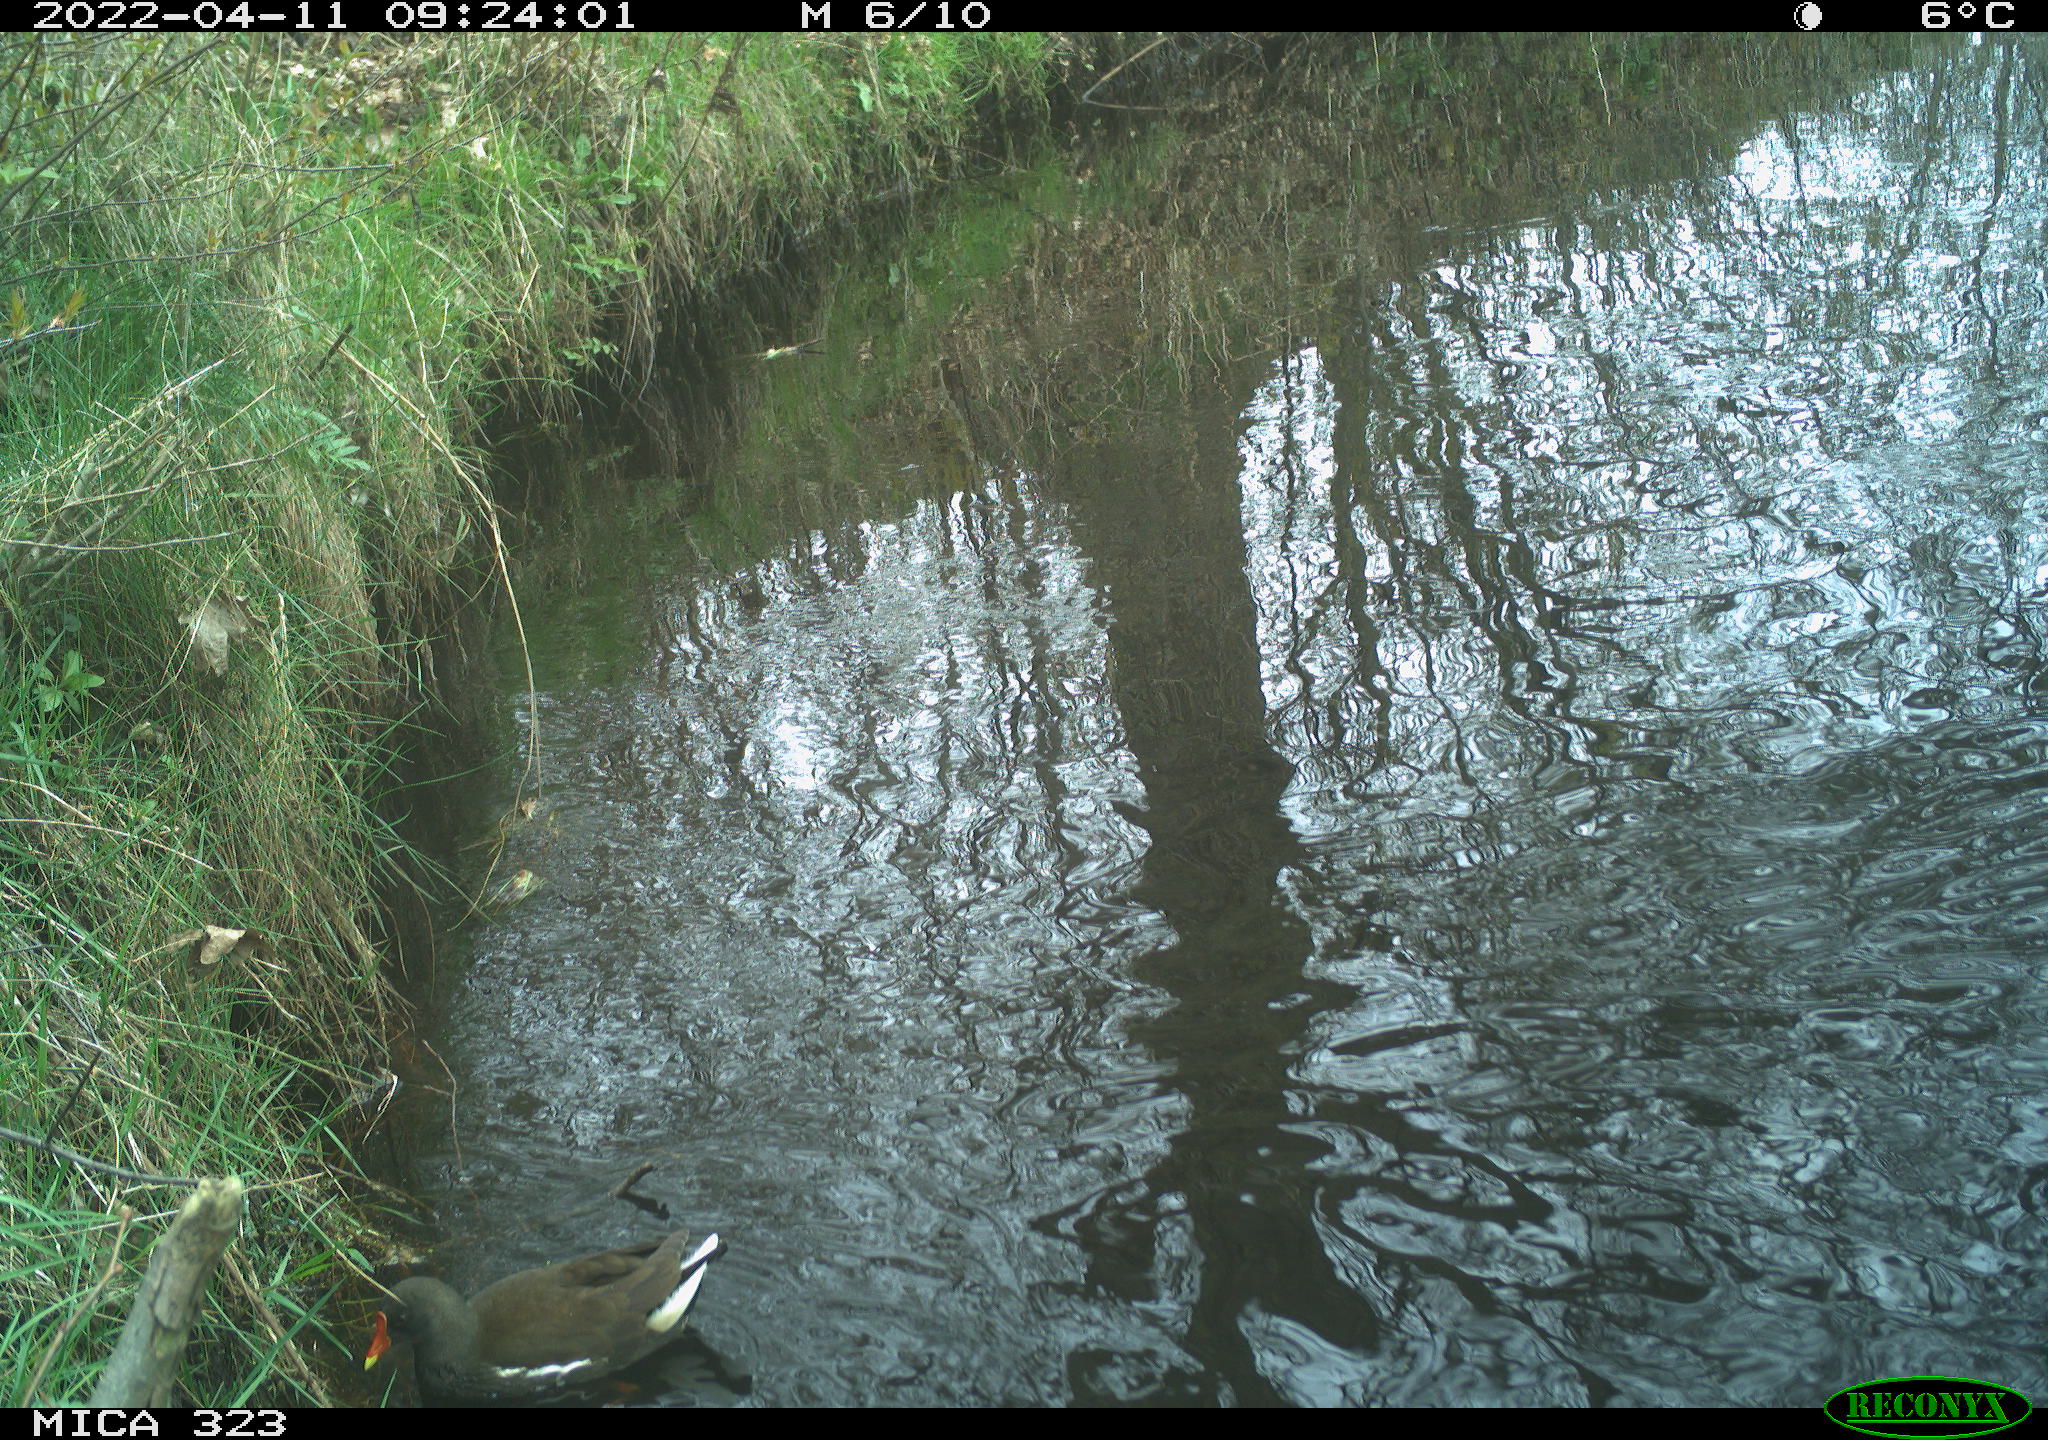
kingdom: Animalia
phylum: Chordata
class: Aves
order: Gruiformes
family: Rallidae
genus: Gallinula
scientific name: Gallinula chloropus
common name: Common moorhen
